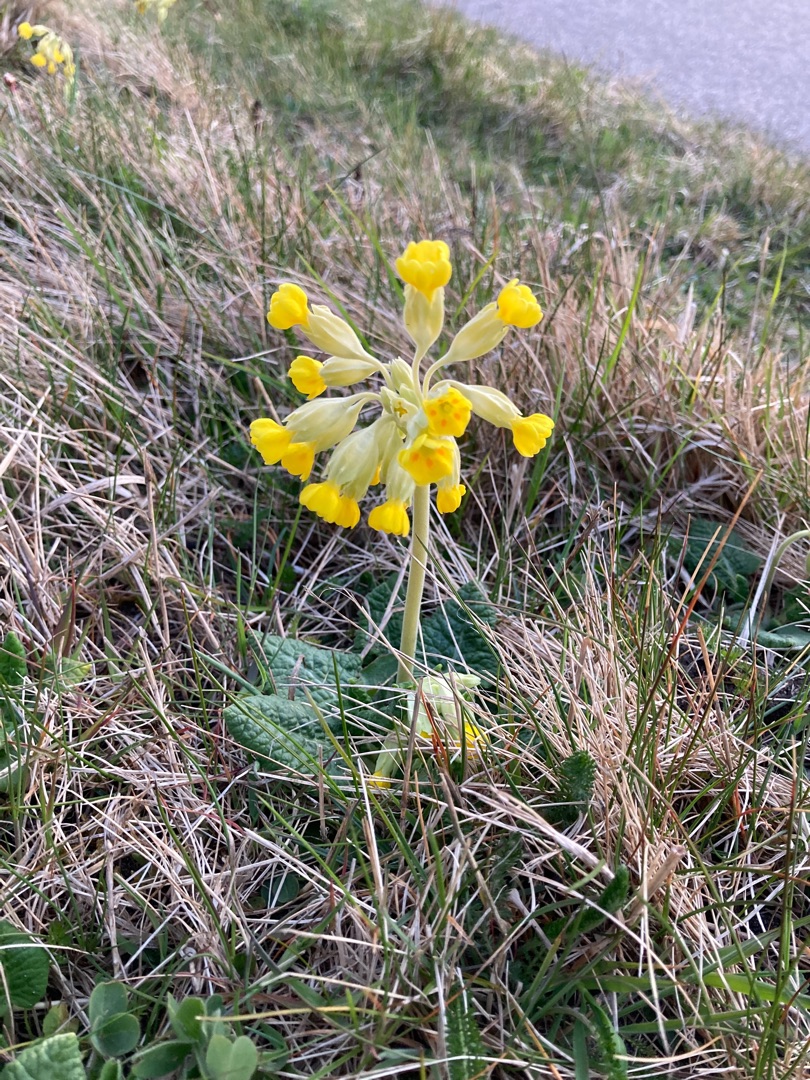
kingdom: Plantae
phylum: Tracheophyta
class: Magnoliopsida
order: Ericales
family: Primulaceae
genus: Primula
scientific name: Primula veris
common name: Hulkravet kodriver
